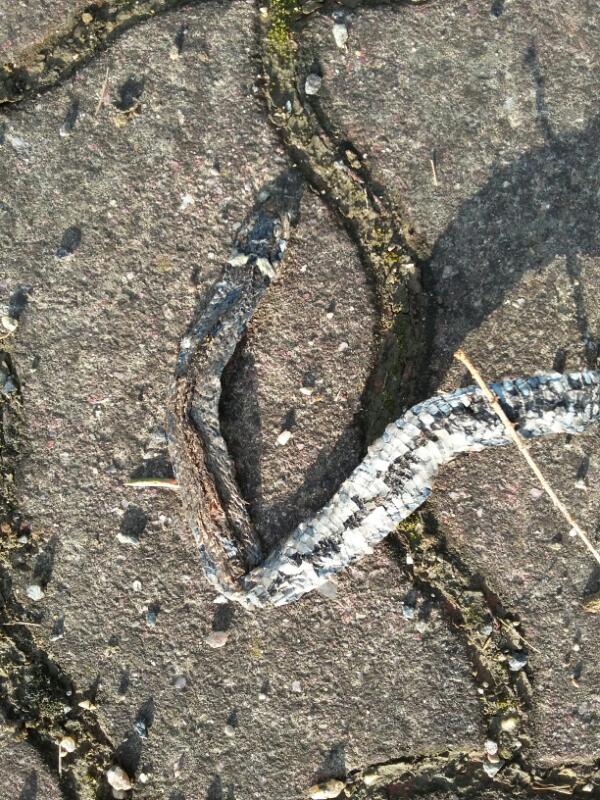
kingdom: Animalia
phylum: Chordata
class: Squamata
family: Colubridae
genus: Natrix
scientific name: Natrix natrix
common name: Grass snake
